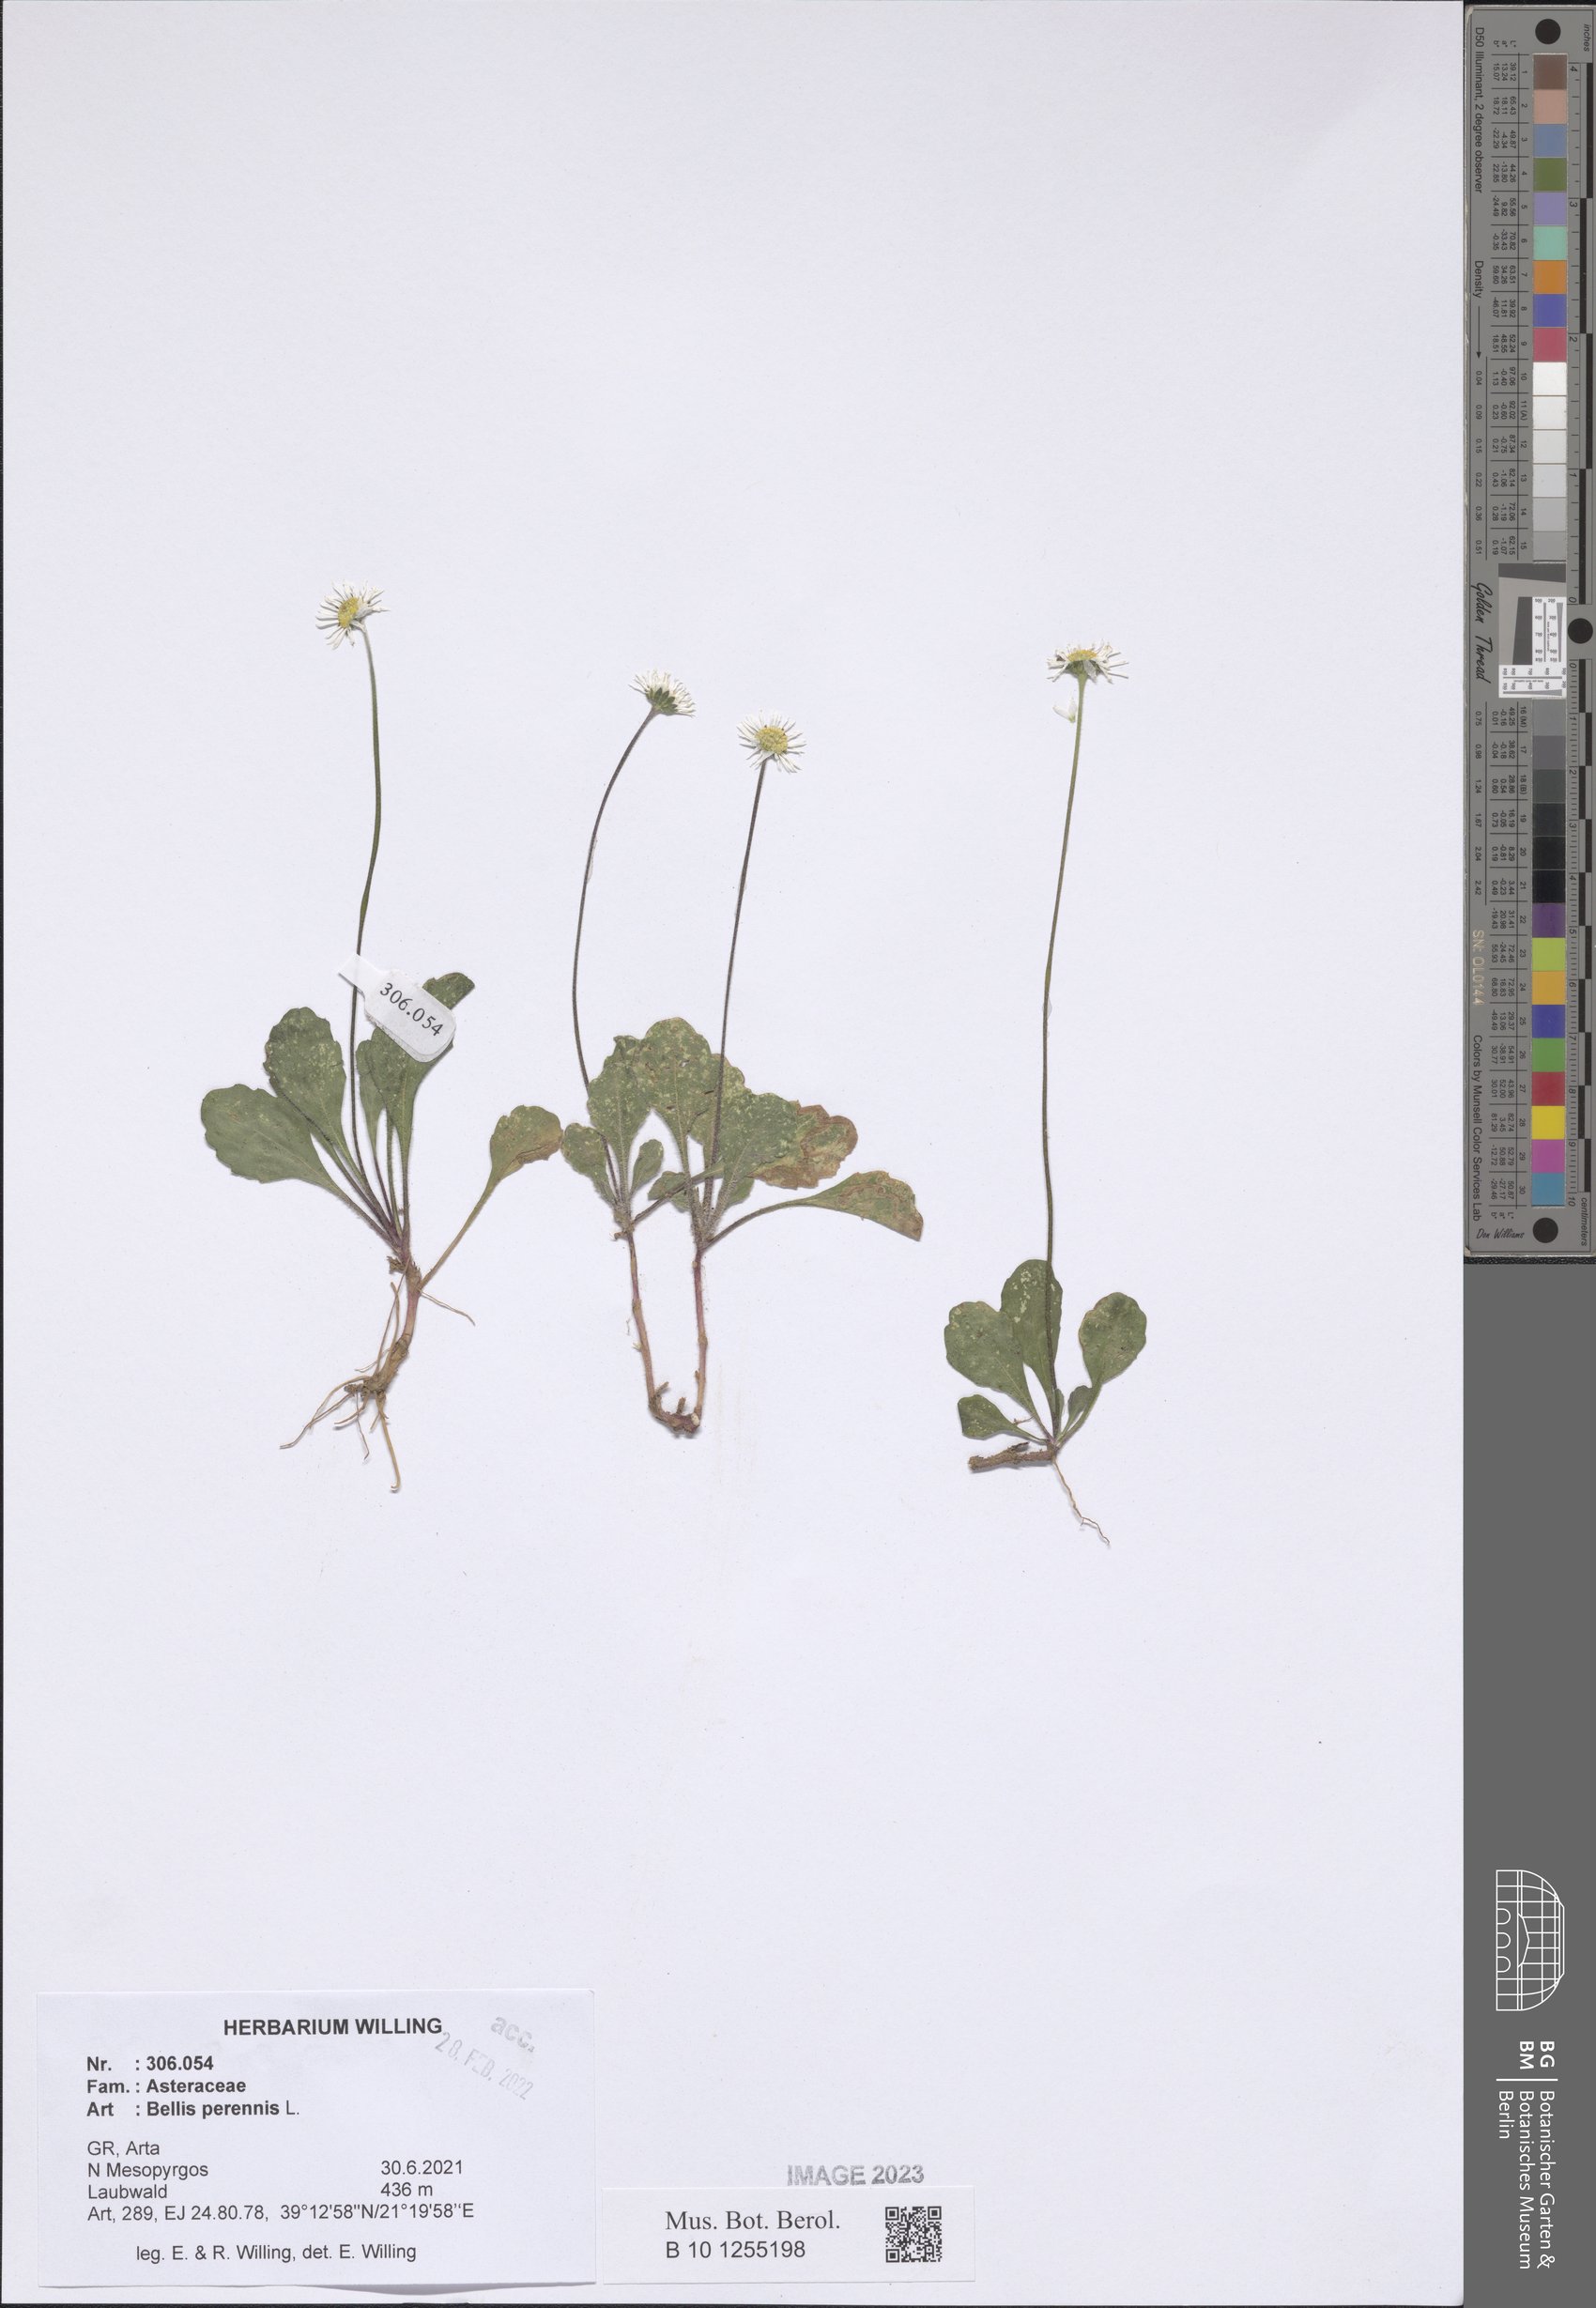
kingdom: Plantae
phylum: Tracheophyta
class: Magnoliopsida
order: Asterales
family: Asteraceae
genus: Bellis
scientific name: Bellis perennis
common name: Lawndaisy
